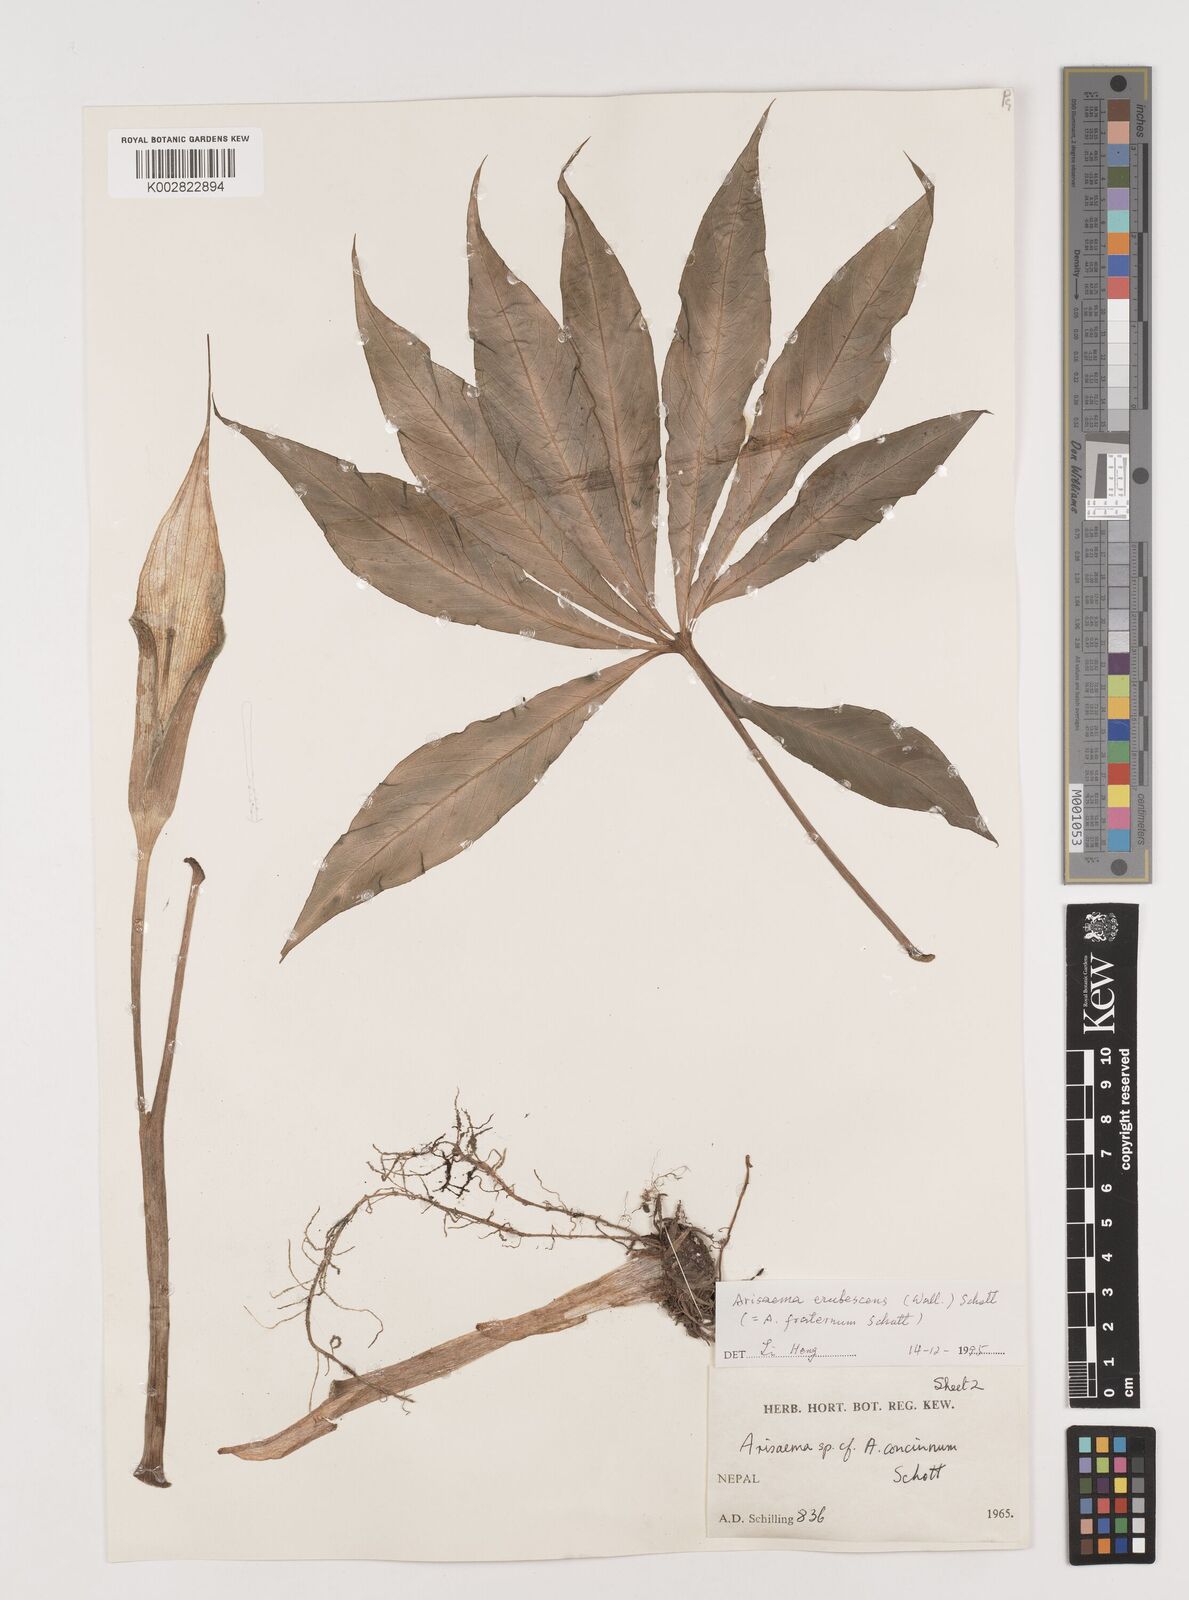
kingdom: Plantae
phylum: Tracheophyta
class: Liliopsida
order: Alismatales
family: Araceae
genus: Arisaema
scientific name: Arisaema erubescens
